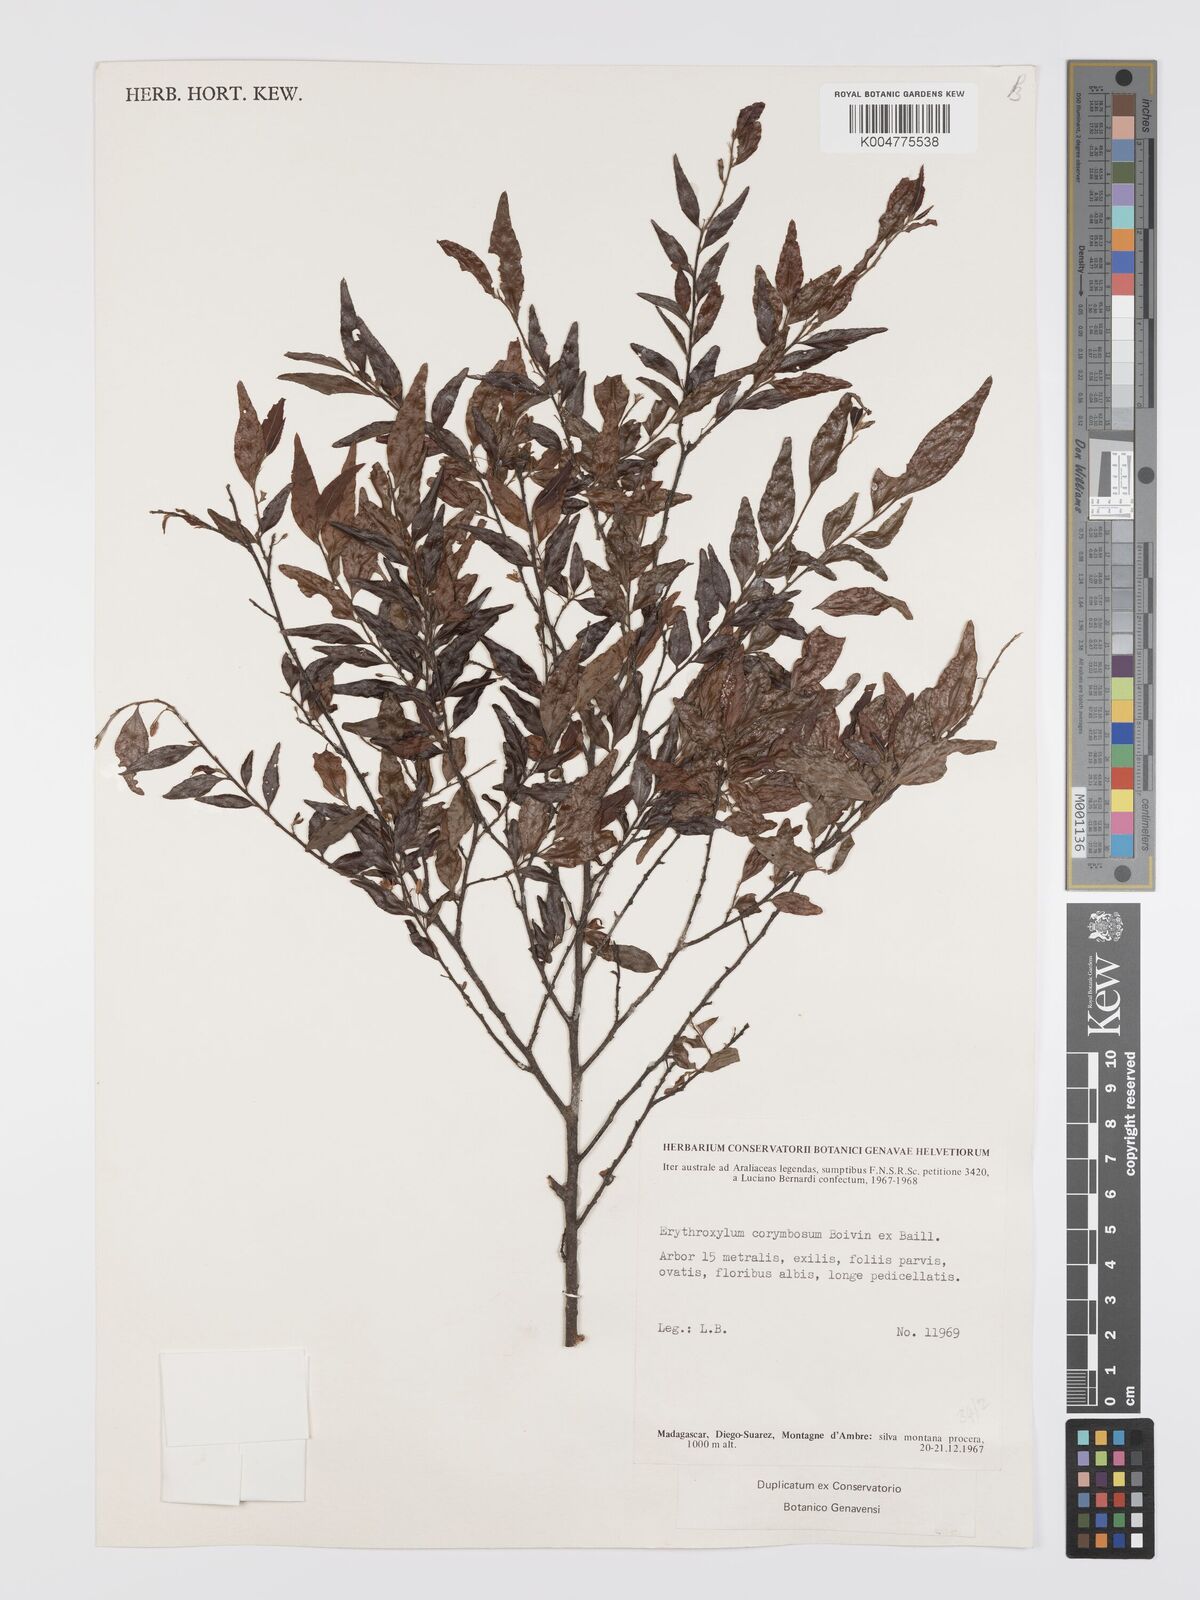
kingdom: Plantae
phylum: Tracheophyta
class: Magnoliopsida
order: Malpighiales
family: Erythroxylaceae
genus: Erythroxylum
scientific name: Erythroxylum corymbosum
